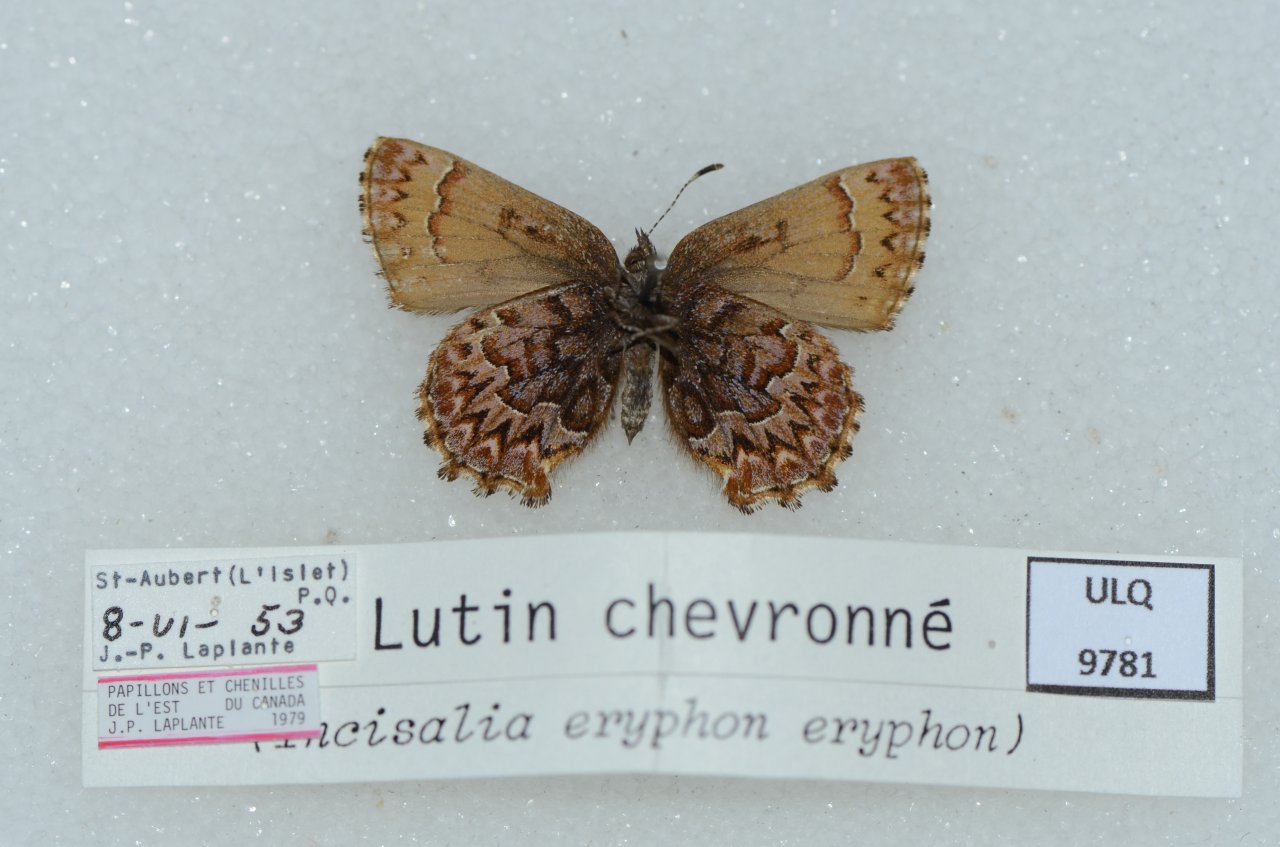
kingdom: Animalia
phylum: Arthropoda
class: Insecta
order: Lepidoptera
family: Lycaenidae
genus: Incisalia
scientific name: Incisalia eryphon
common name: Western Pine Elfin
